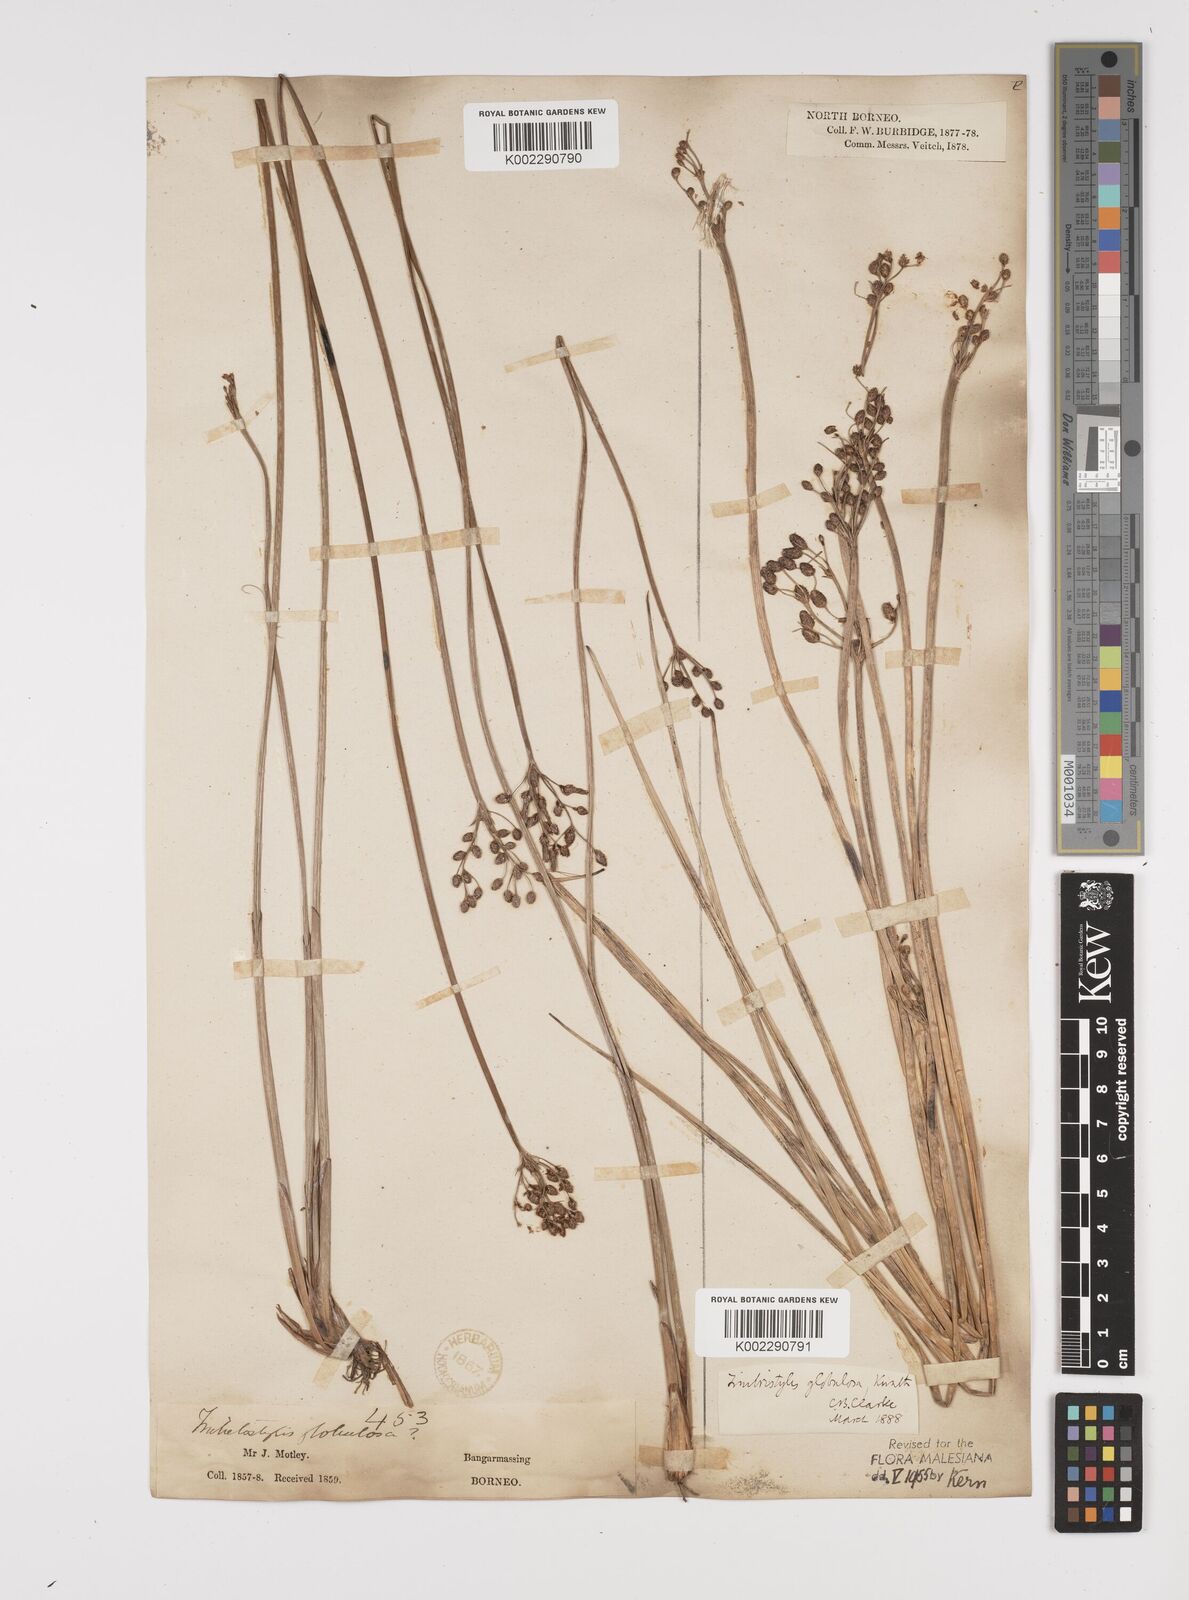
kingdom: Plantae
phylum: Tracheophyta
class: Liliopsida
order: Poales
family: Cyperaceae
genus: Fimbristylis
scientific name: Fimbristylis umbellaris
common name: Globular fimbristylis
